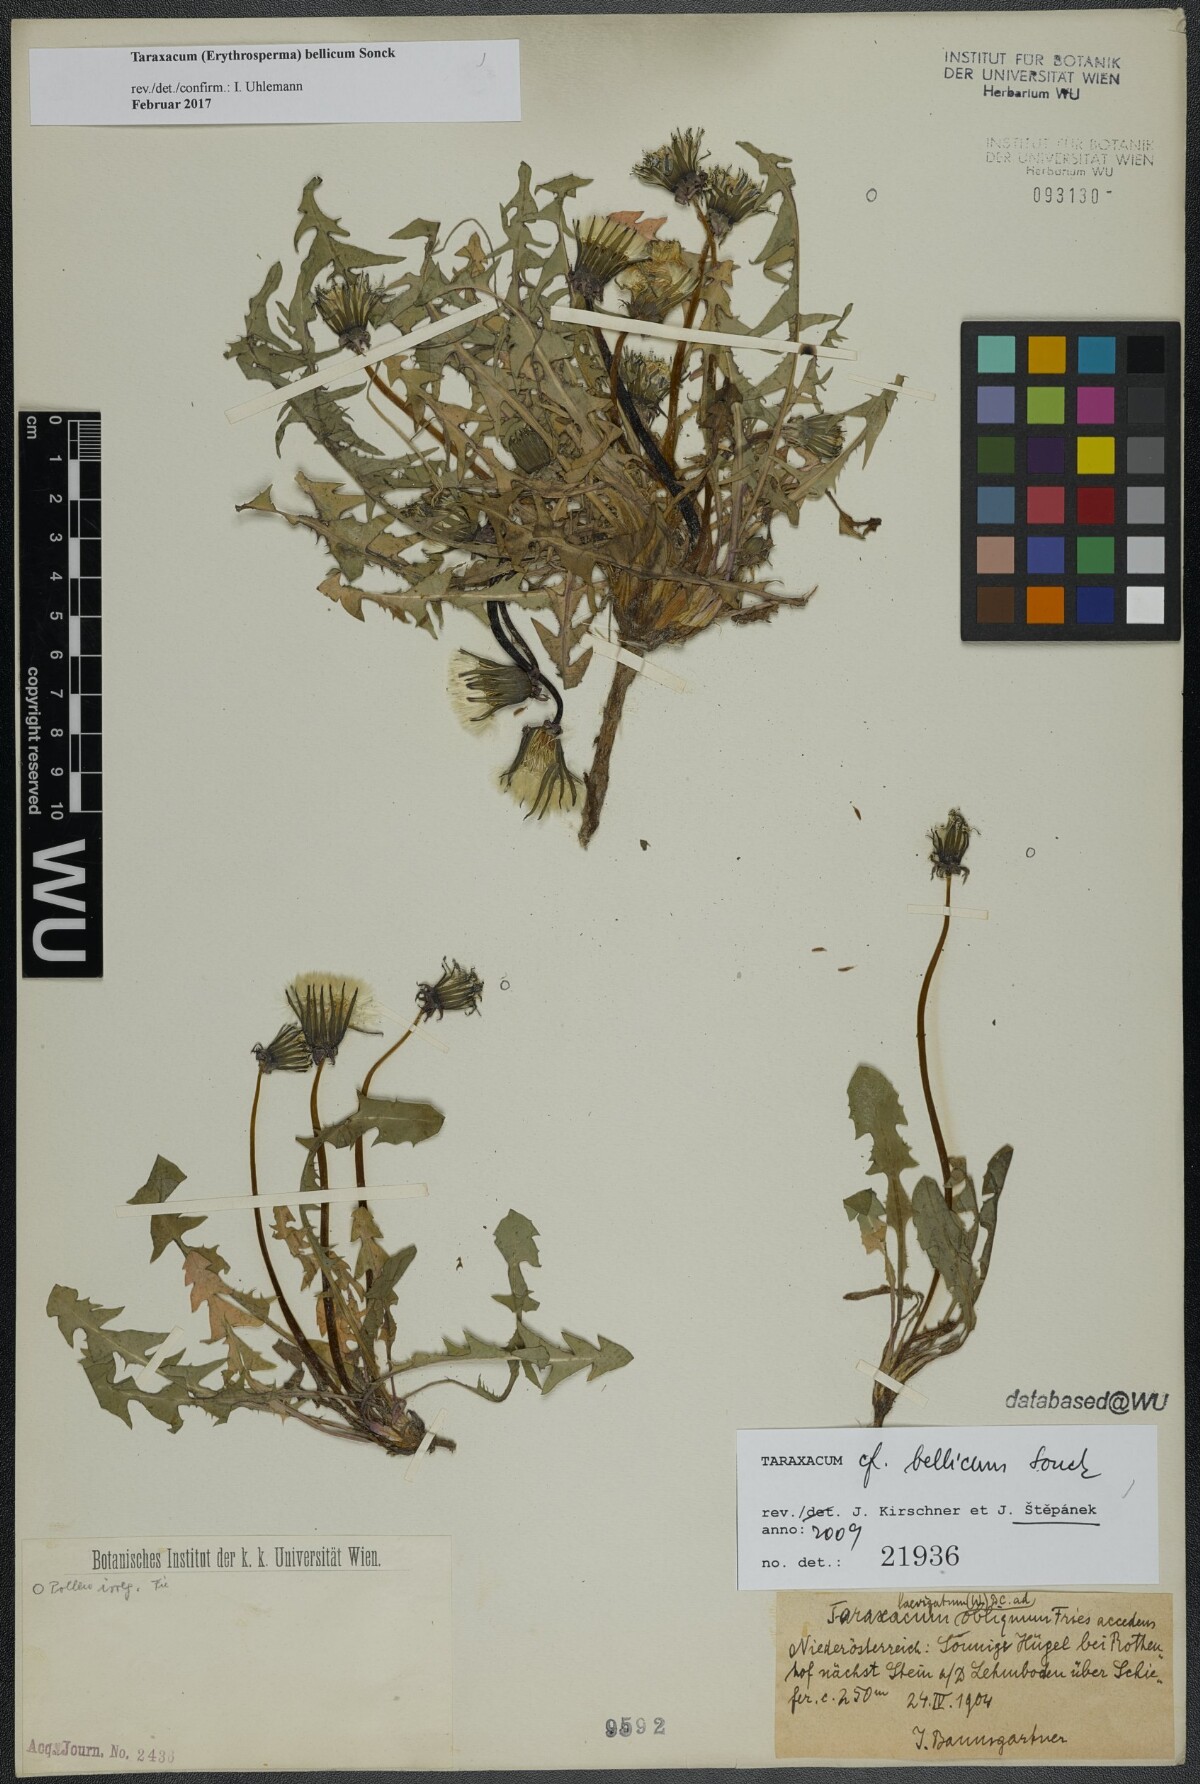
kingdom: Plantae
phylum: Tracheophyta
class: Magnoliopsida
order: Asterales
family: Asteraceae
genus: Taraxacum
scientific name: Taraxacum bellicum
